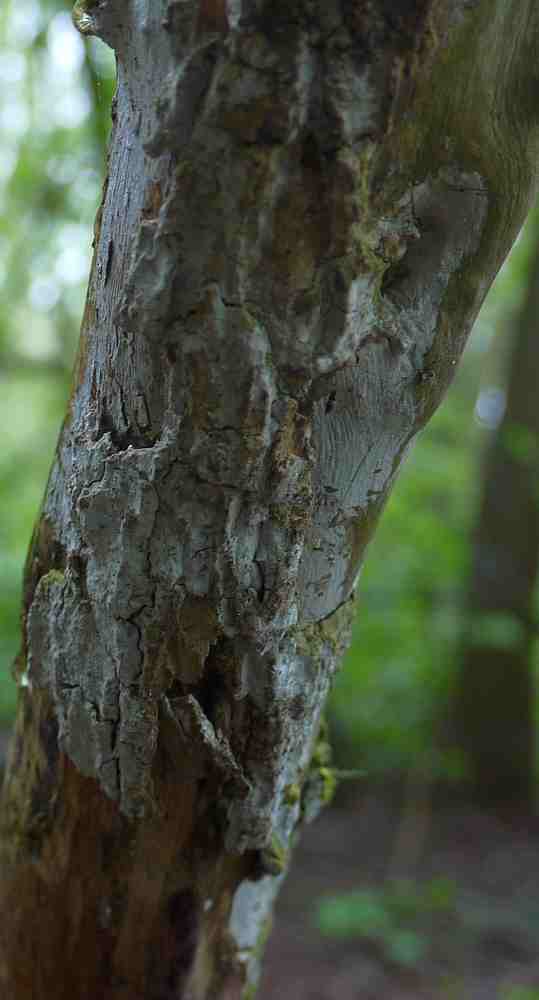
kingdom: Fungi
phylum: Basidiomycota
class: Agaricomycetes
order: Corticiales
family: Corticiaceae
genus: Lyomyces
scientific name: Lyomyces sambuci
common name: almindelig hyldehinde
